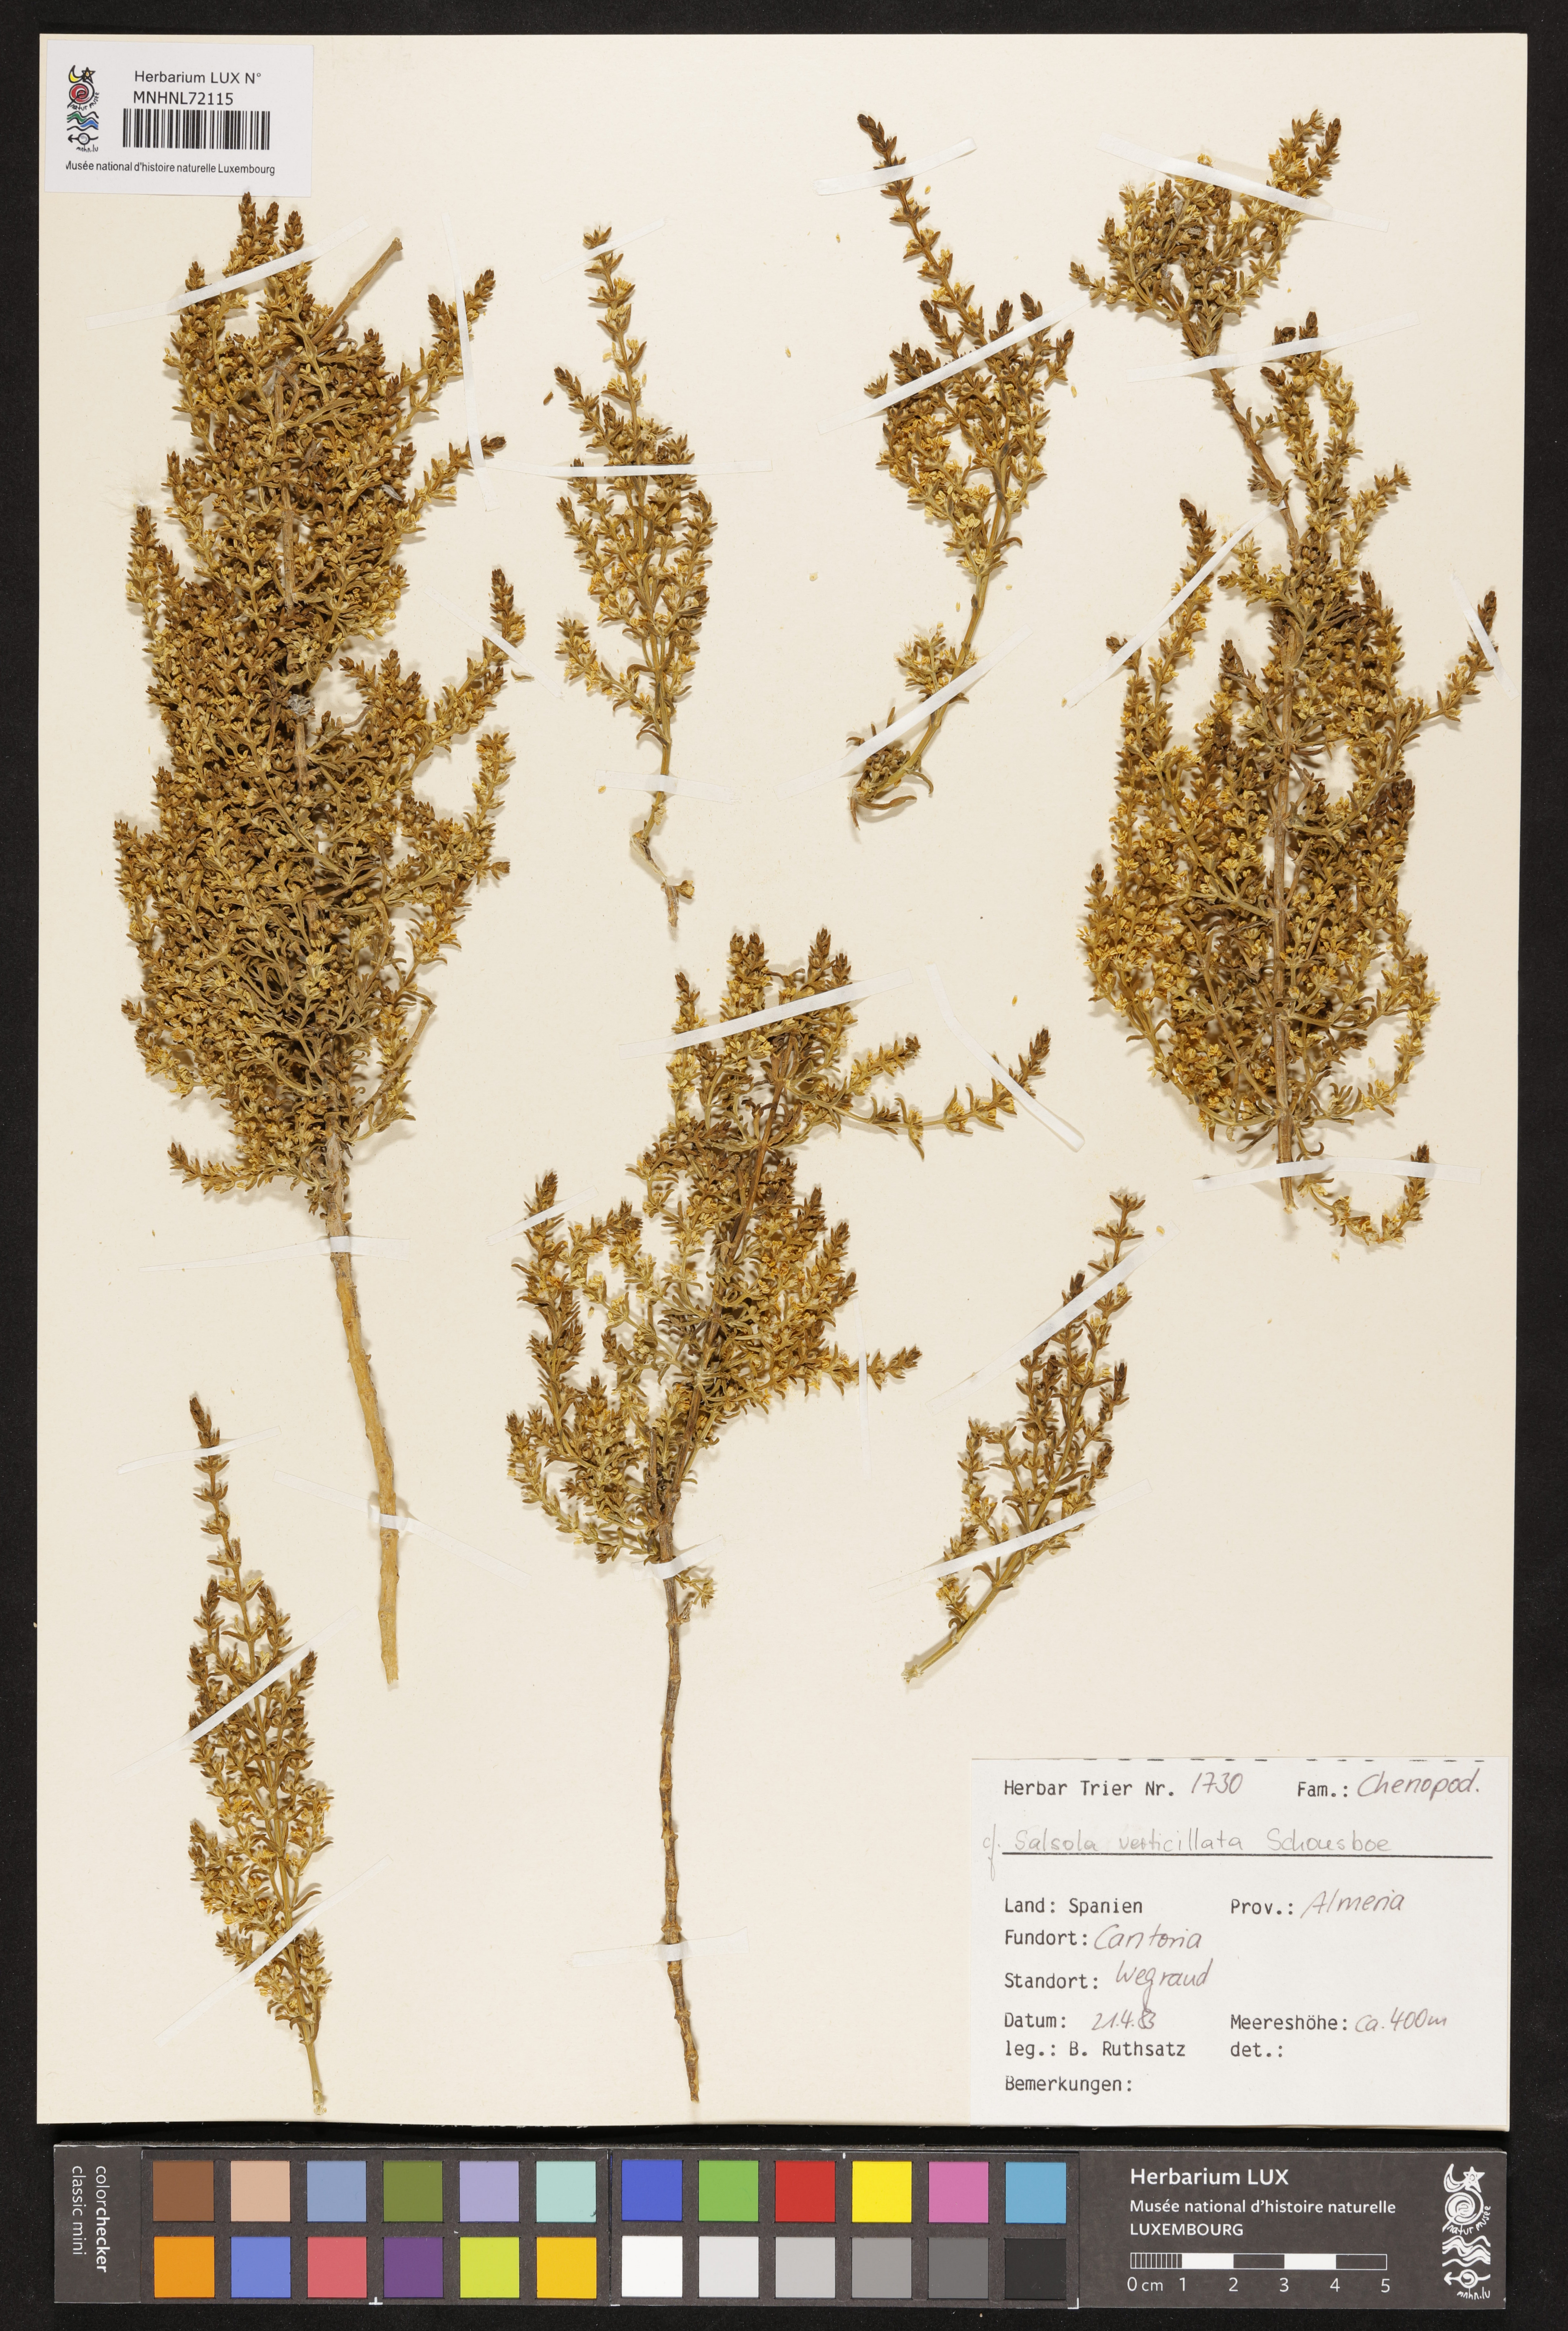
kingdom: Plantae
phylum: Tracheophyta
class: Magnoliopsida
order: Caryophyllales
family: Amaranthaceae
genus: Salsola
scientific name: Salsola verticillata
